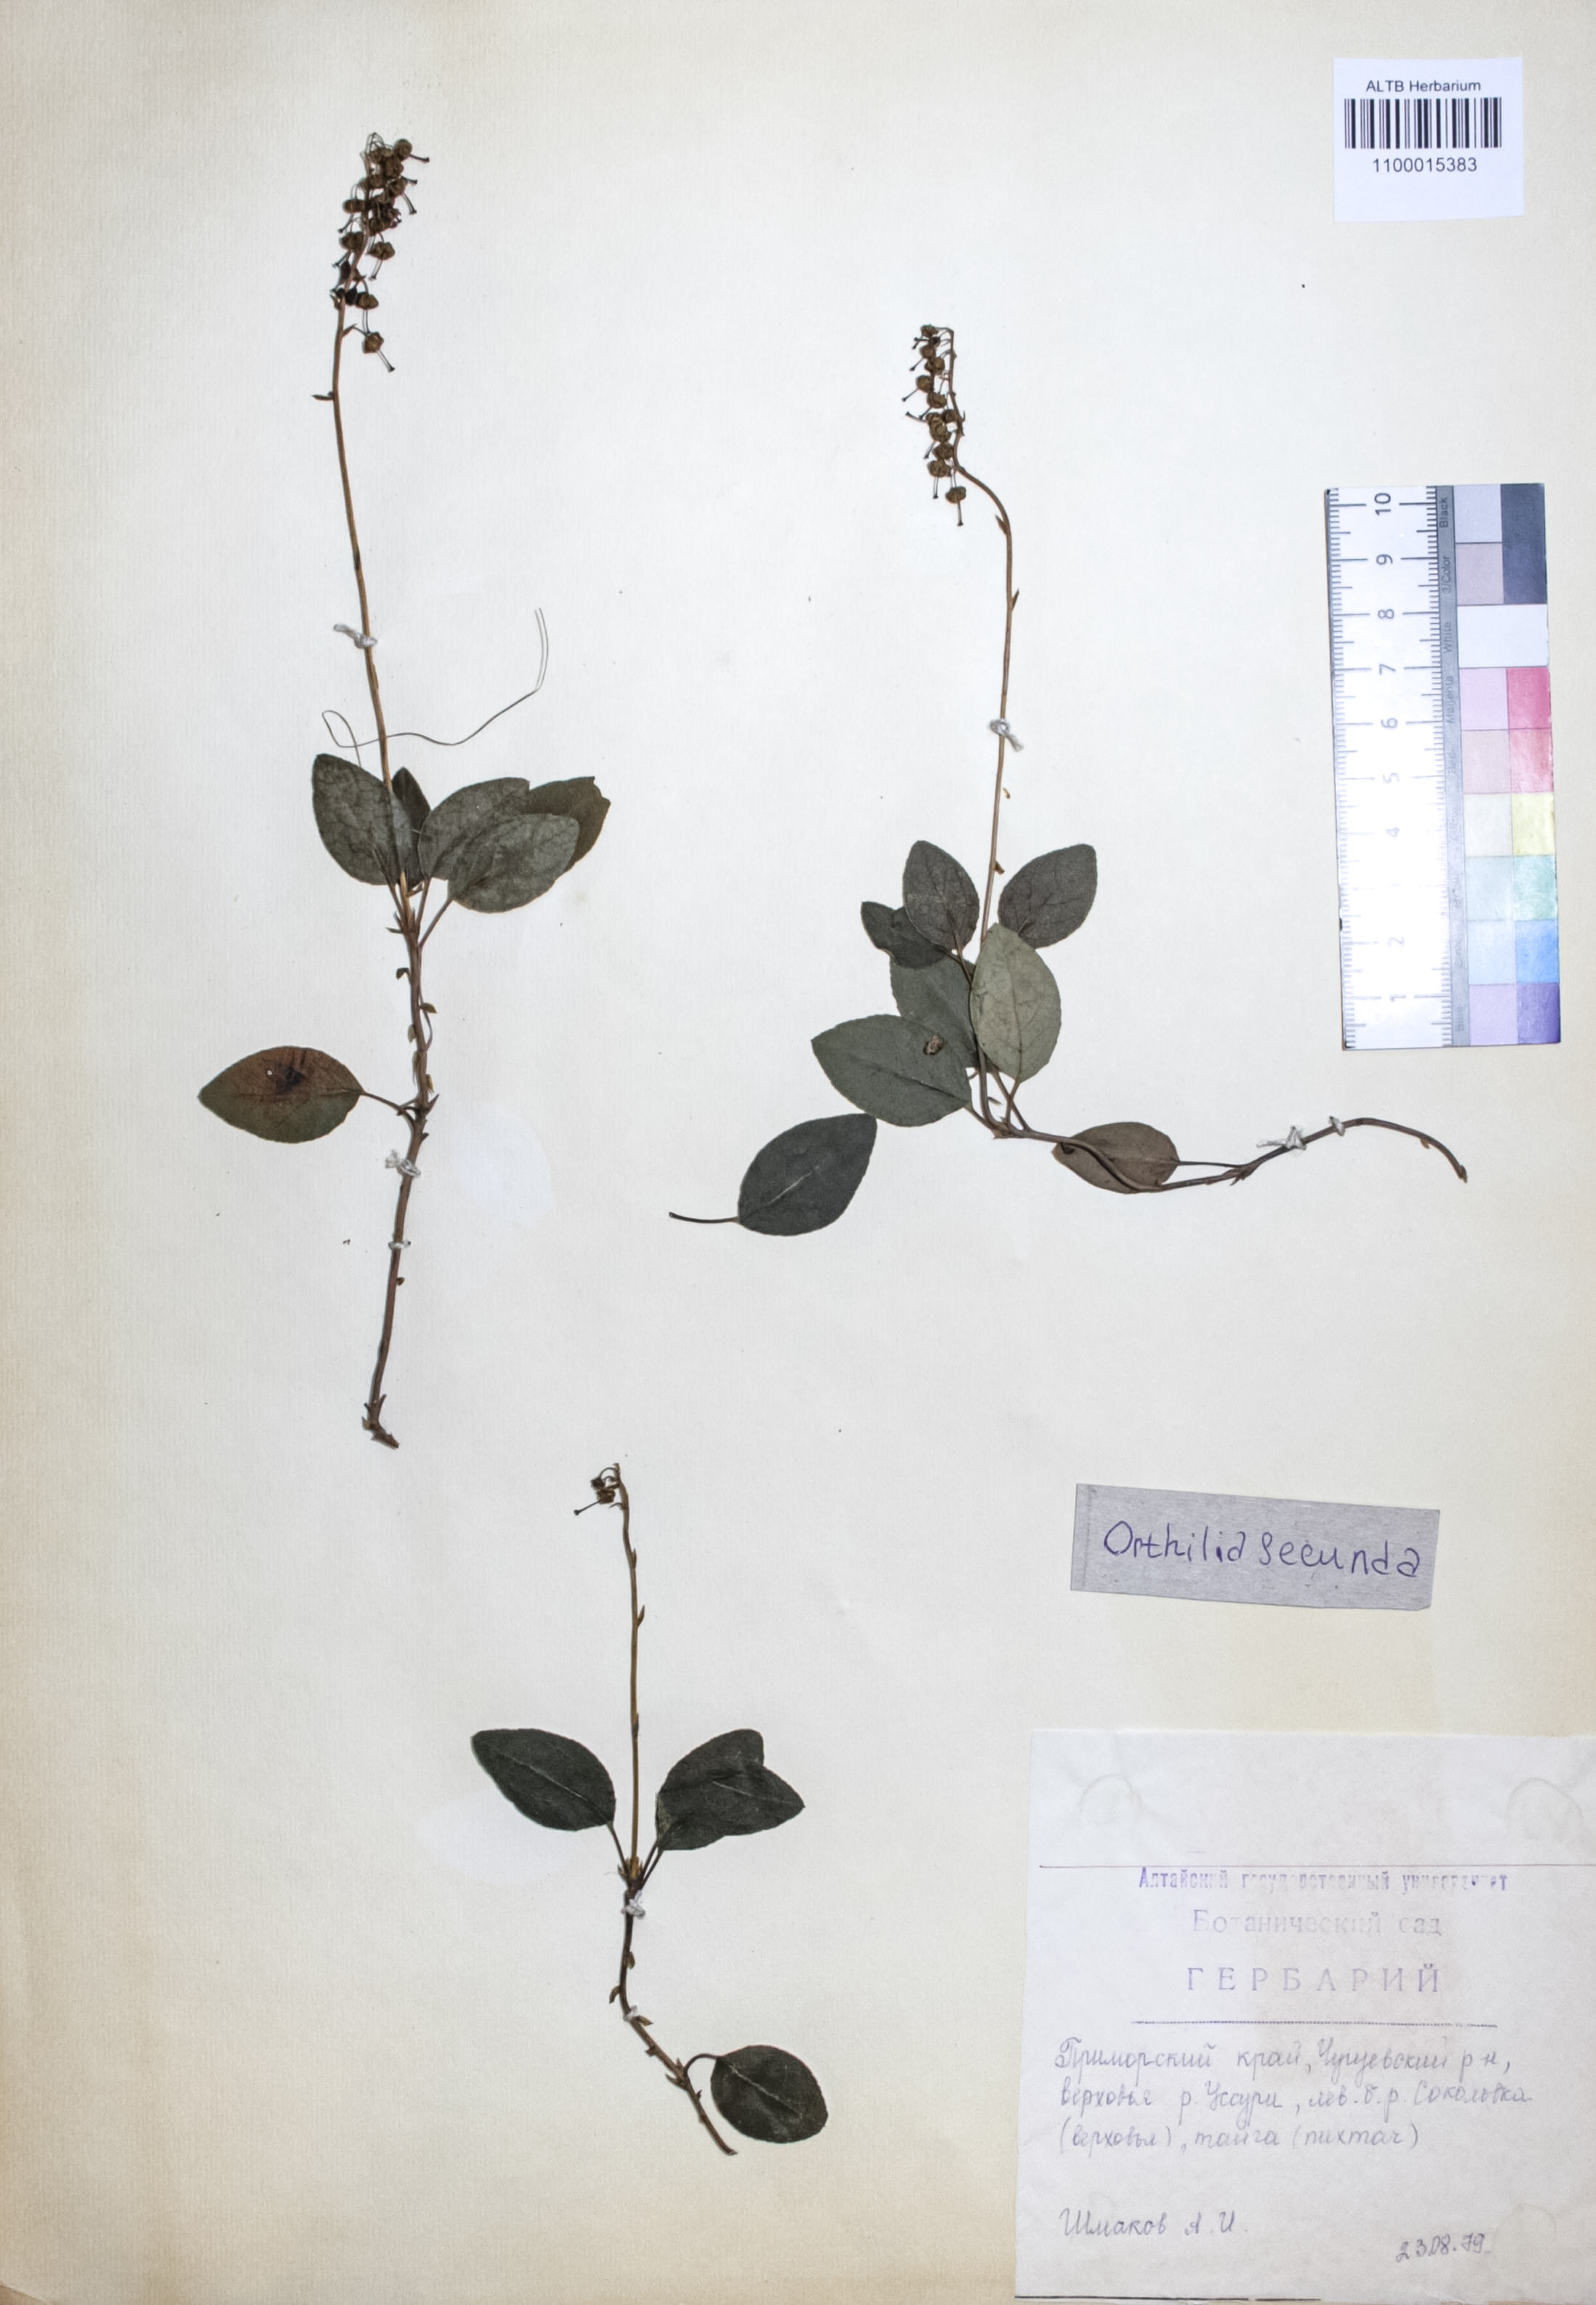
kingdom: Plantae
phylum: Tracheophyta
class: Magnoliopsida
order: Ericales
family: Ericaceae
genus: Orthilia
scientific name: Orthilia secunda
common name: One-sided orthilia
